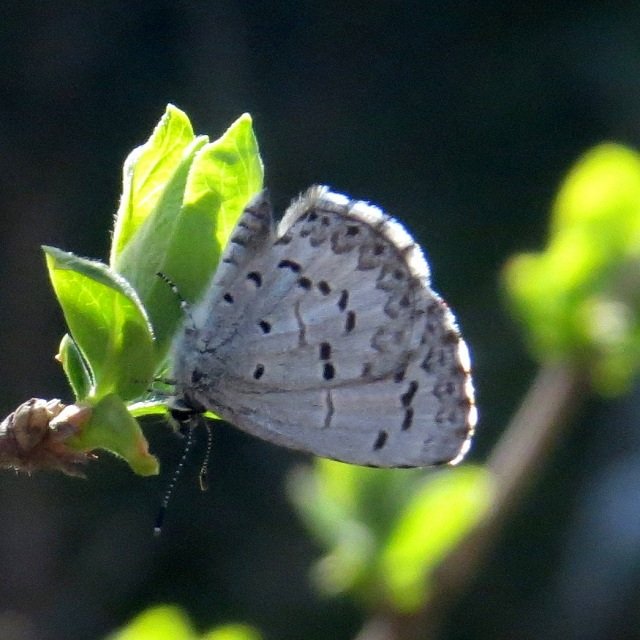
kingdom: Animalia
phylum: Arthropoda
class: Insecta
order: Lepidoptera
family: Lycaenidae
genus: Celastrina
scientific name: Celastrina lucia
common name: Northern Spring Azure
